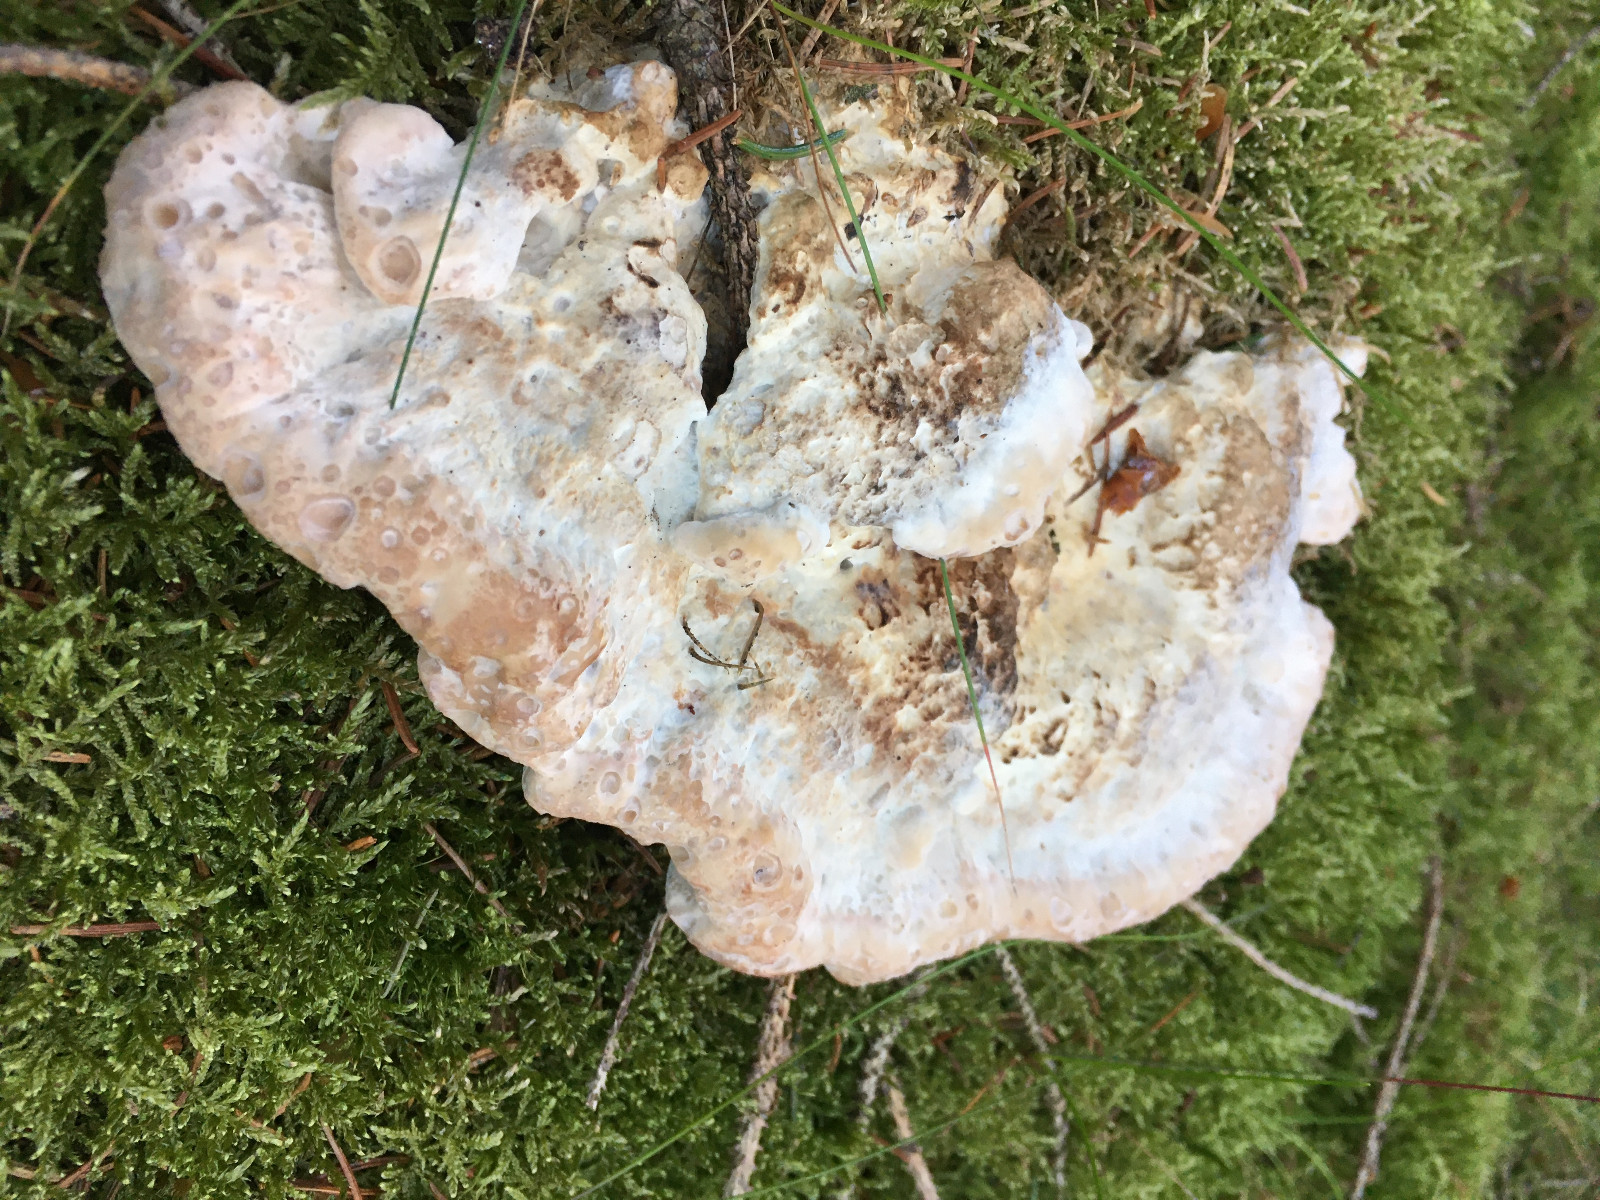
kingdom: Fungi
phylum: Basidiomycota
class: Agaricomycetes
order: Polyporales
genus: Calcipostia
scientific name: Calcipostia guttulata
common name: dråbe-kødporesvamp
